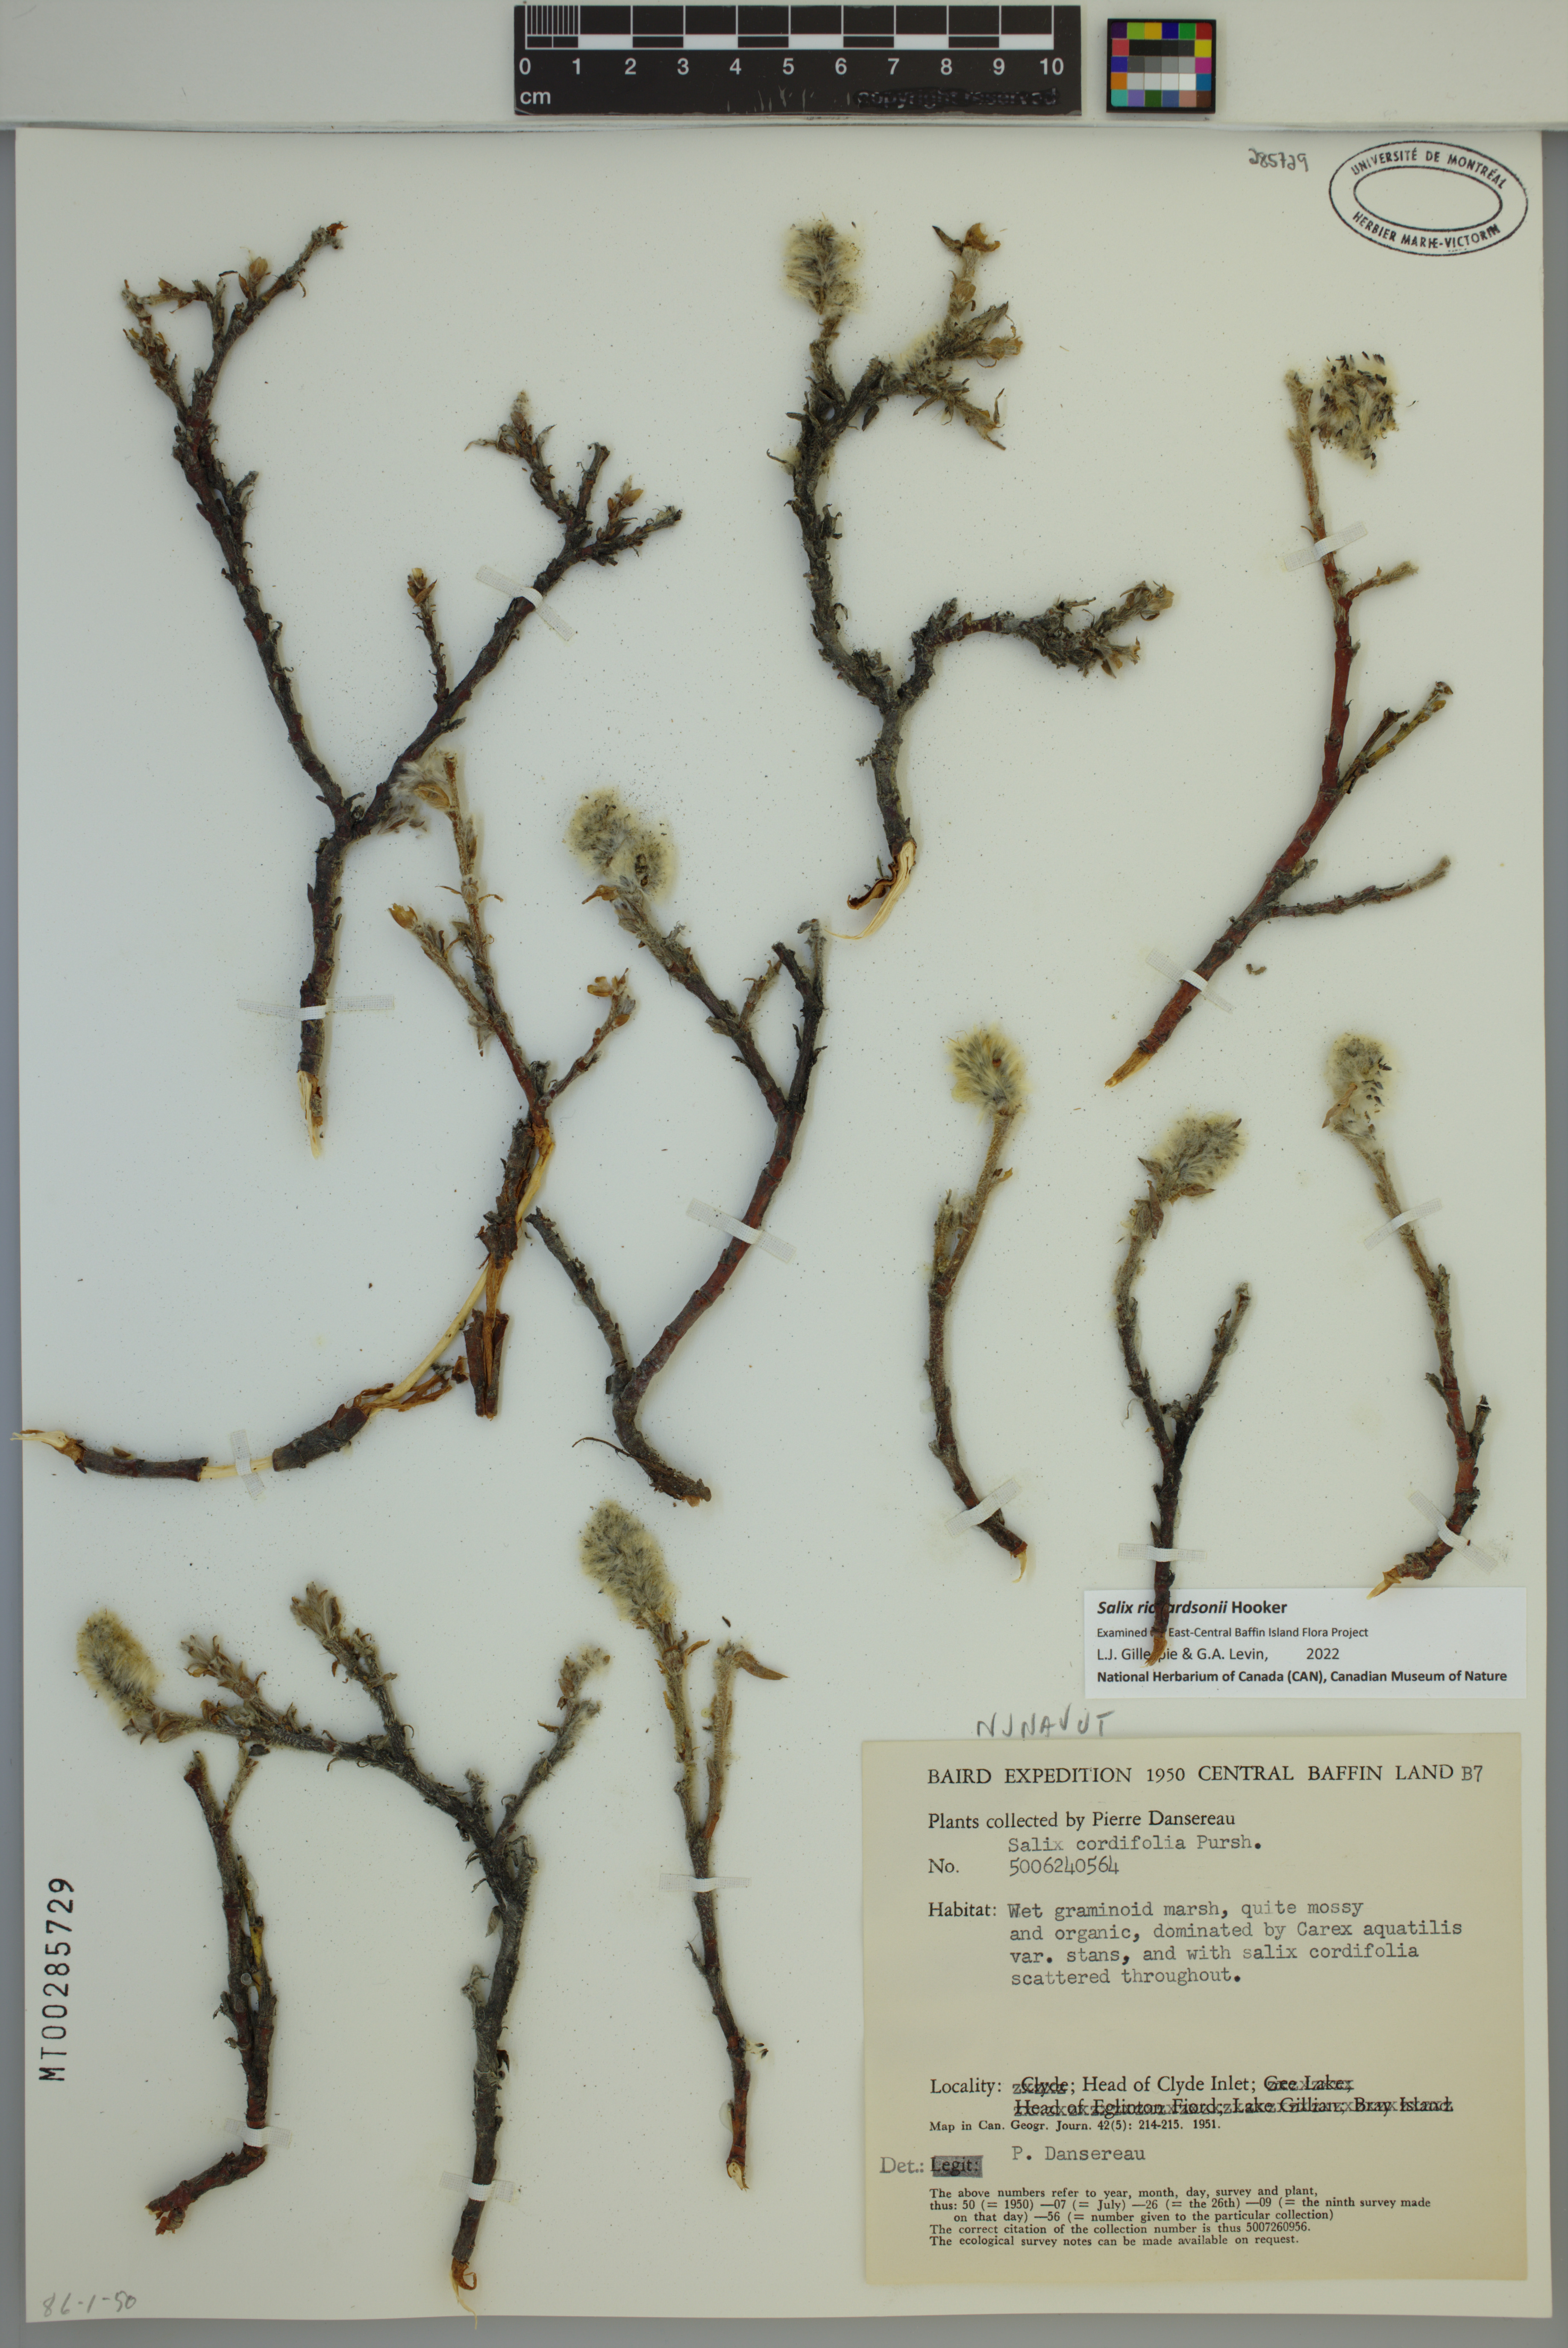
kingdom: Plantae
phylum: Tracheophyta
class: Magnoliopsida
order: Malpighiales
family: Salicaceae
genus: Salix
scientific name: Salix richardsonii
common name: Richardson’s willow
